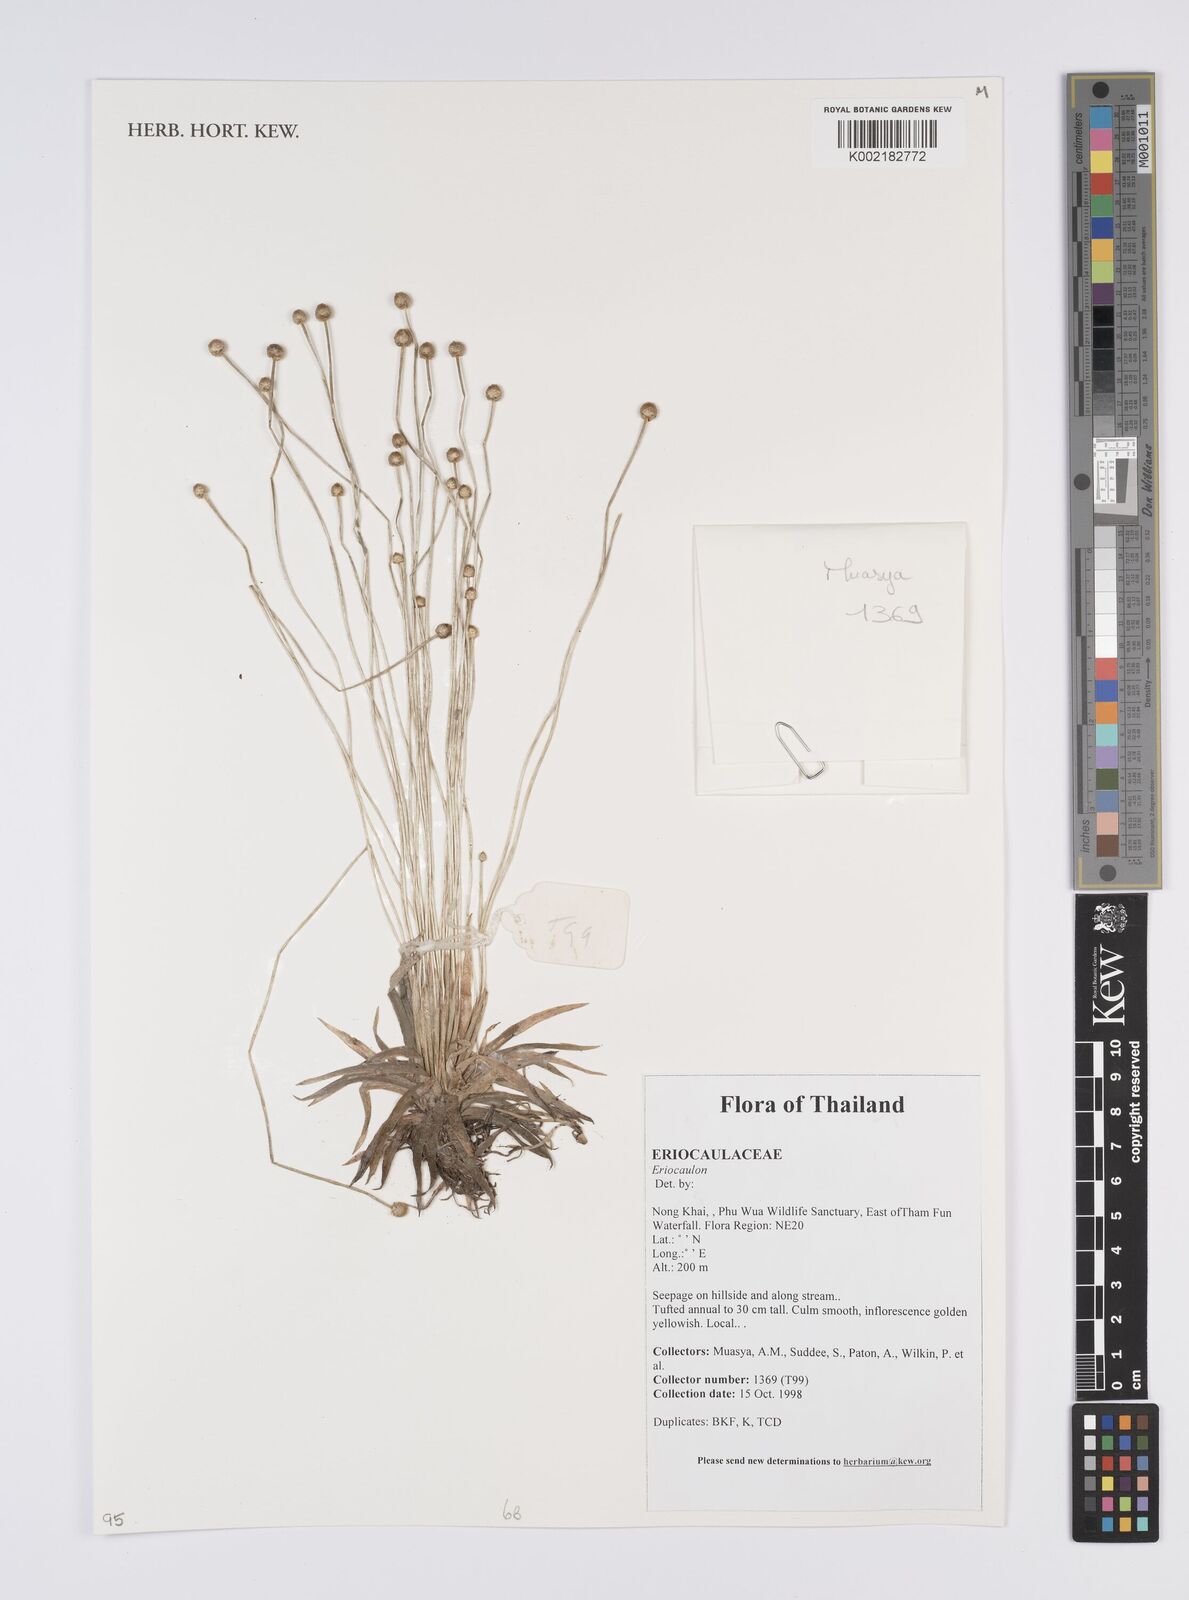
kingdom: Plantae
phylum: Tracheophyta
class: Liliopsida
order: Poales
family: Eriocaulaceae
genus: Eriocaulon
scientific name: Eriocaulon
